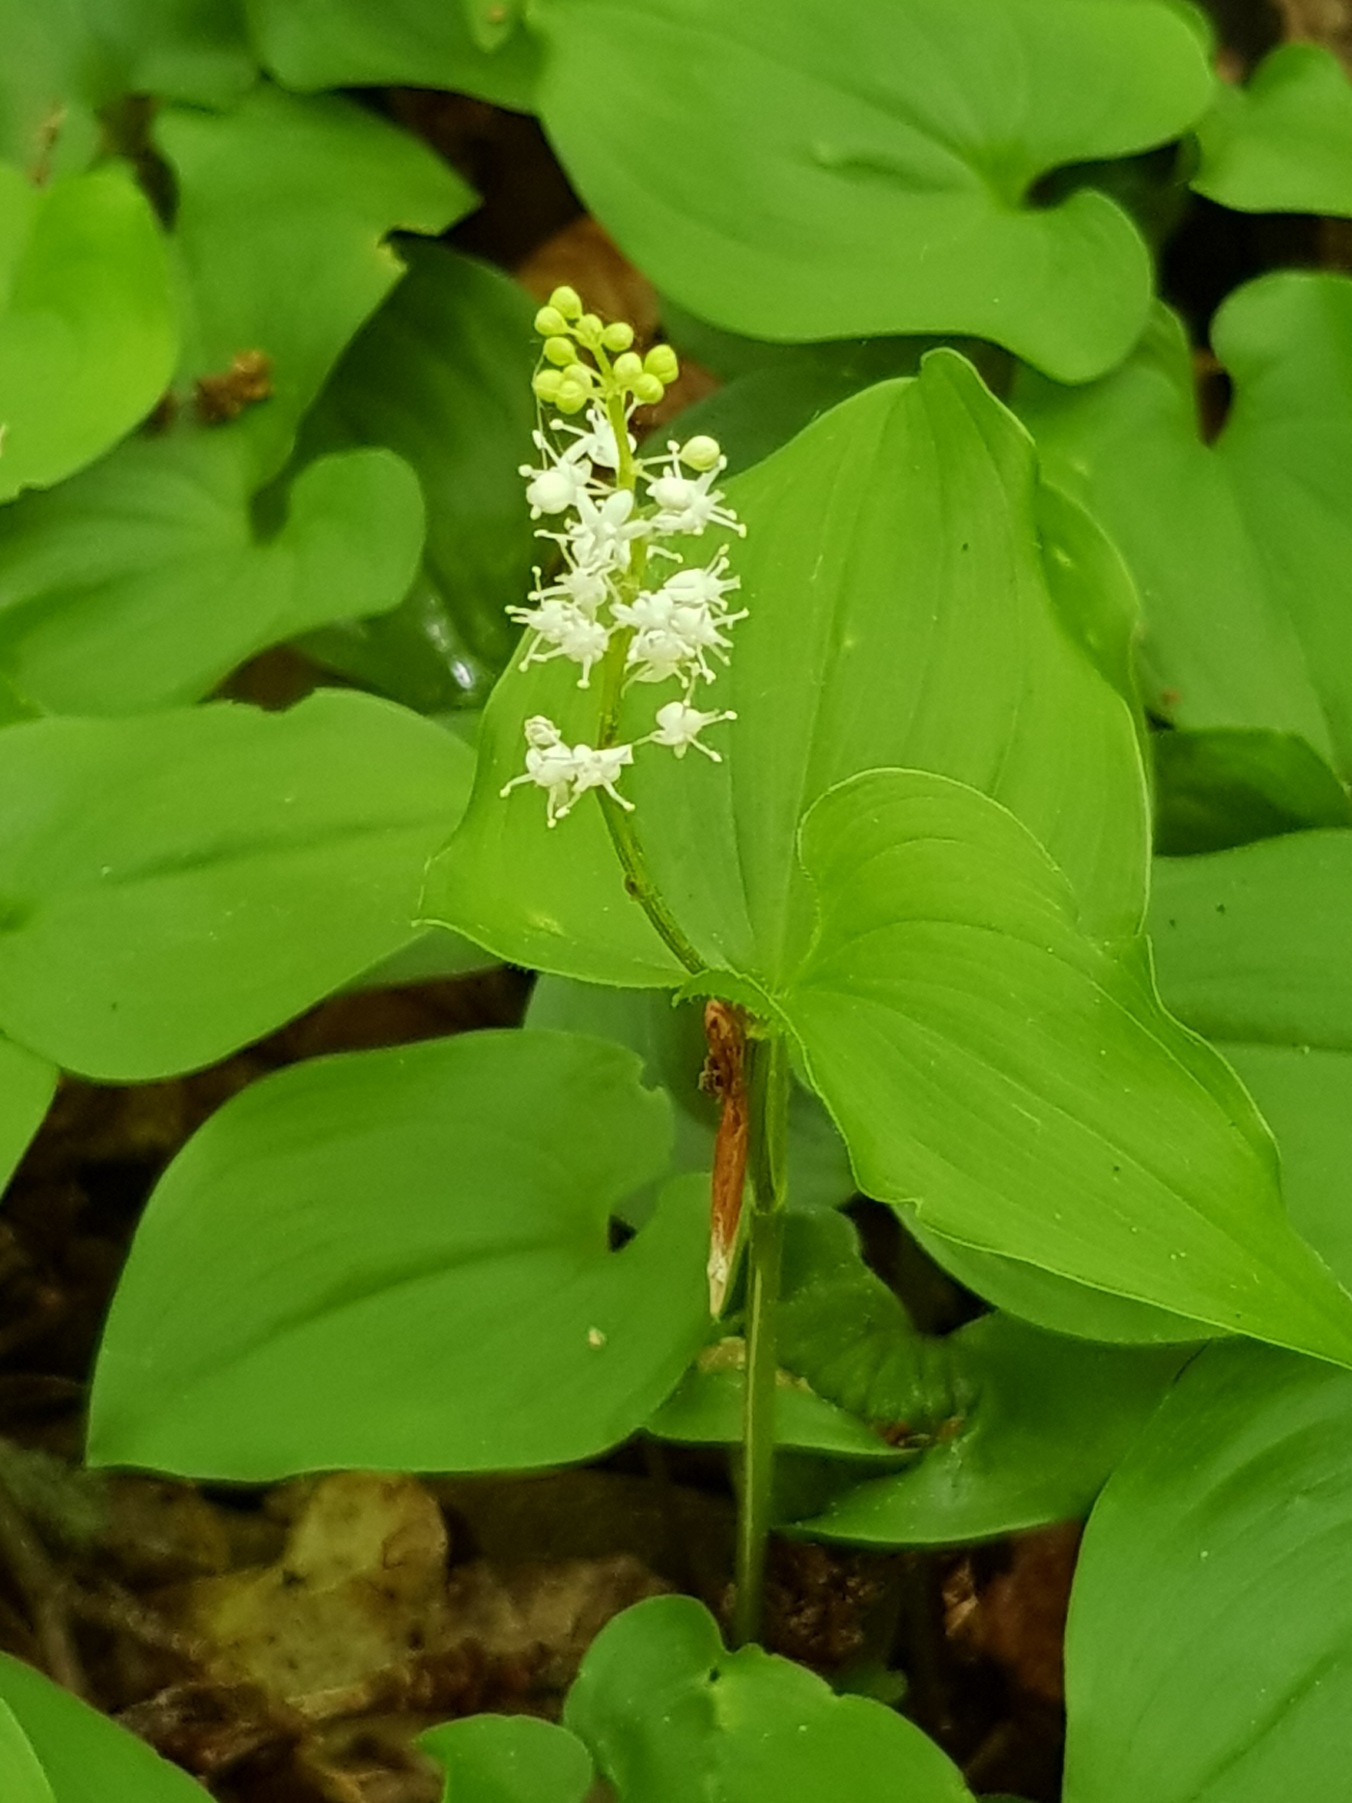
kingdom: Plantae
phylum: Tracheophyta
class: Liliopsida
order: Asparagales
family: Asparagaceae
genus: Maianthemum
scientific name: Maianthemum bifolium
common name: Majblomst
